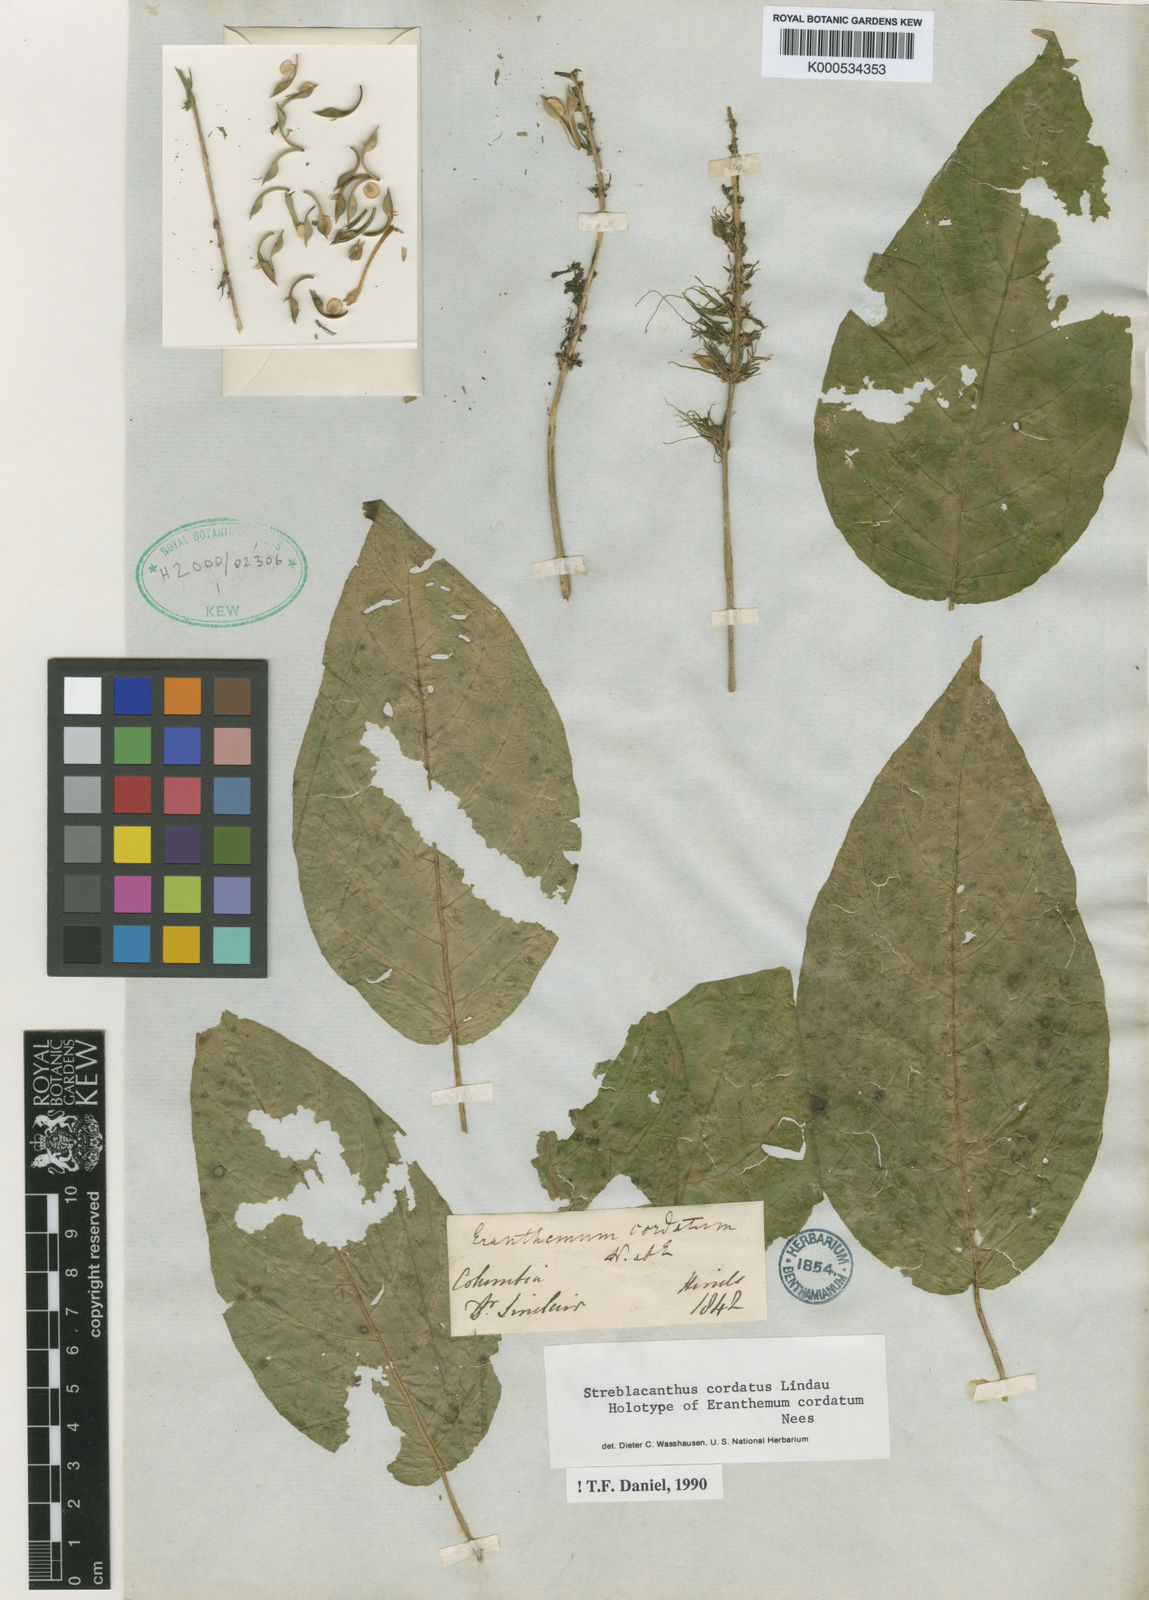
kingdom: Plantae
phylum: Tracheophyta
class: Magnoliopsida
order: Lamiales
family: Acanthaceae
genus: Pachystachys
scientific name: Pachystachys cordata
